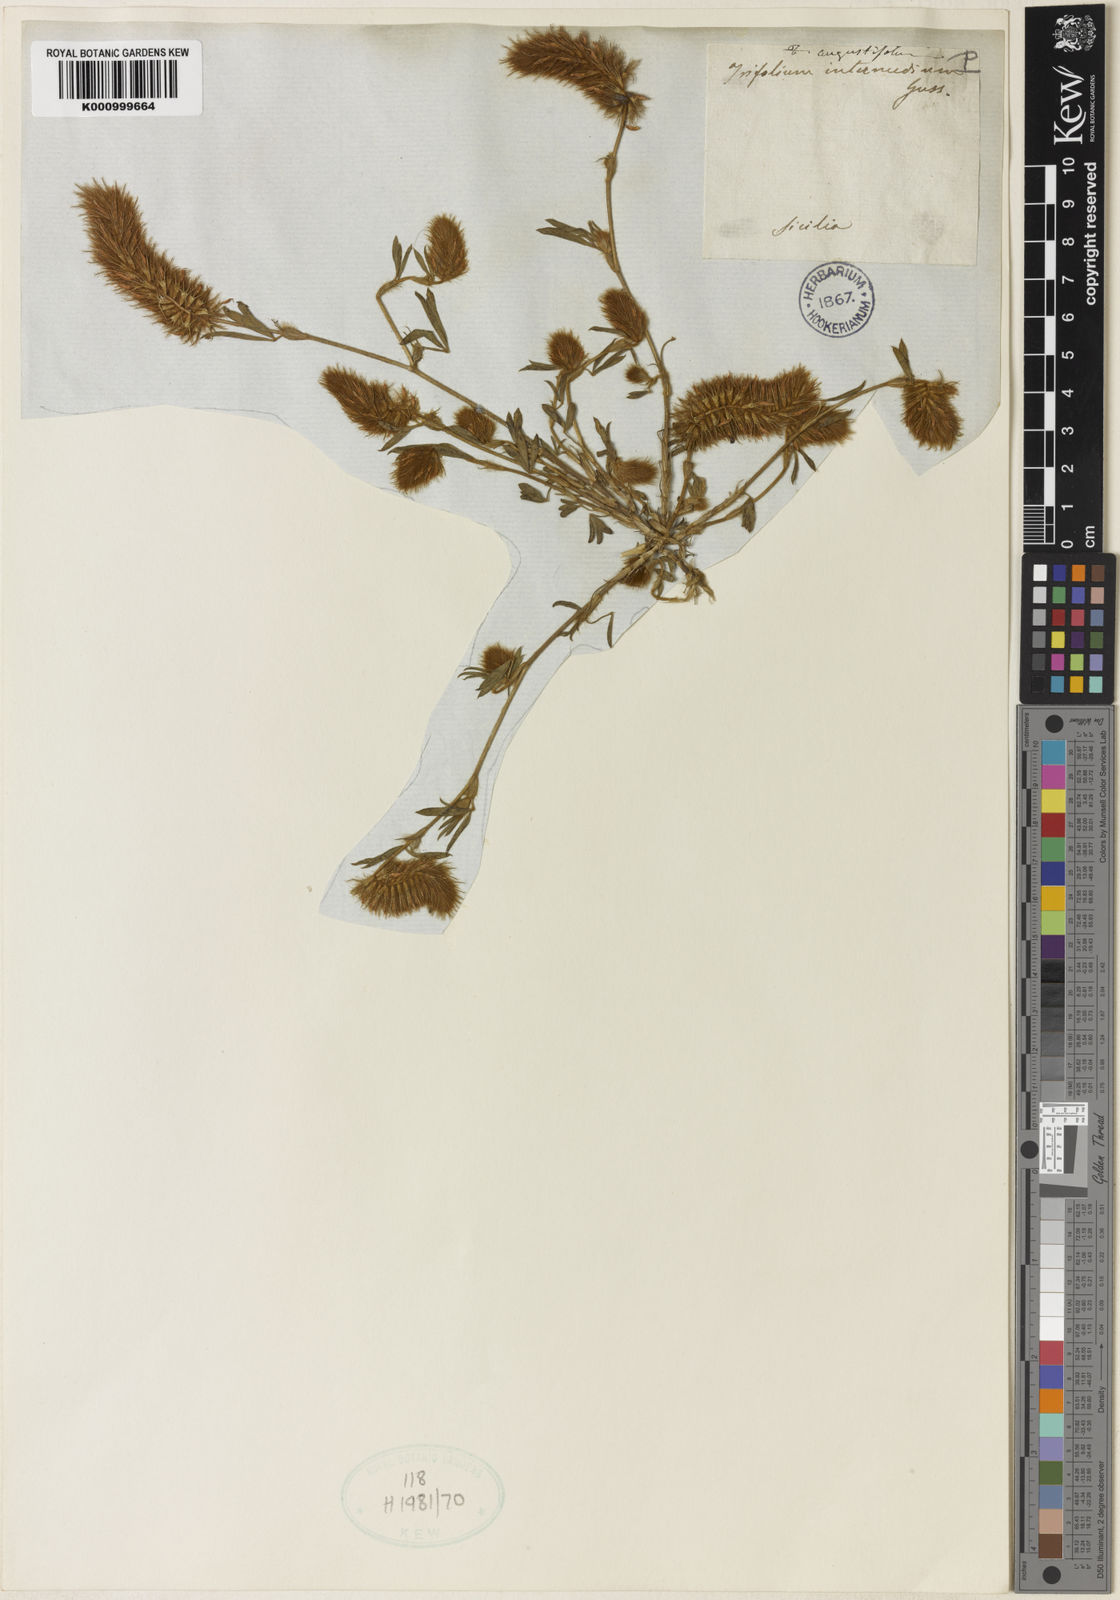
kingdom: Plantae
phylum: Tracheophyta
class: Magnoliopsida
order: Fabales
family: Fabaceae
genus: Trifolium
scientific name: Trifolium angustifolium
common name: Narrow clover
